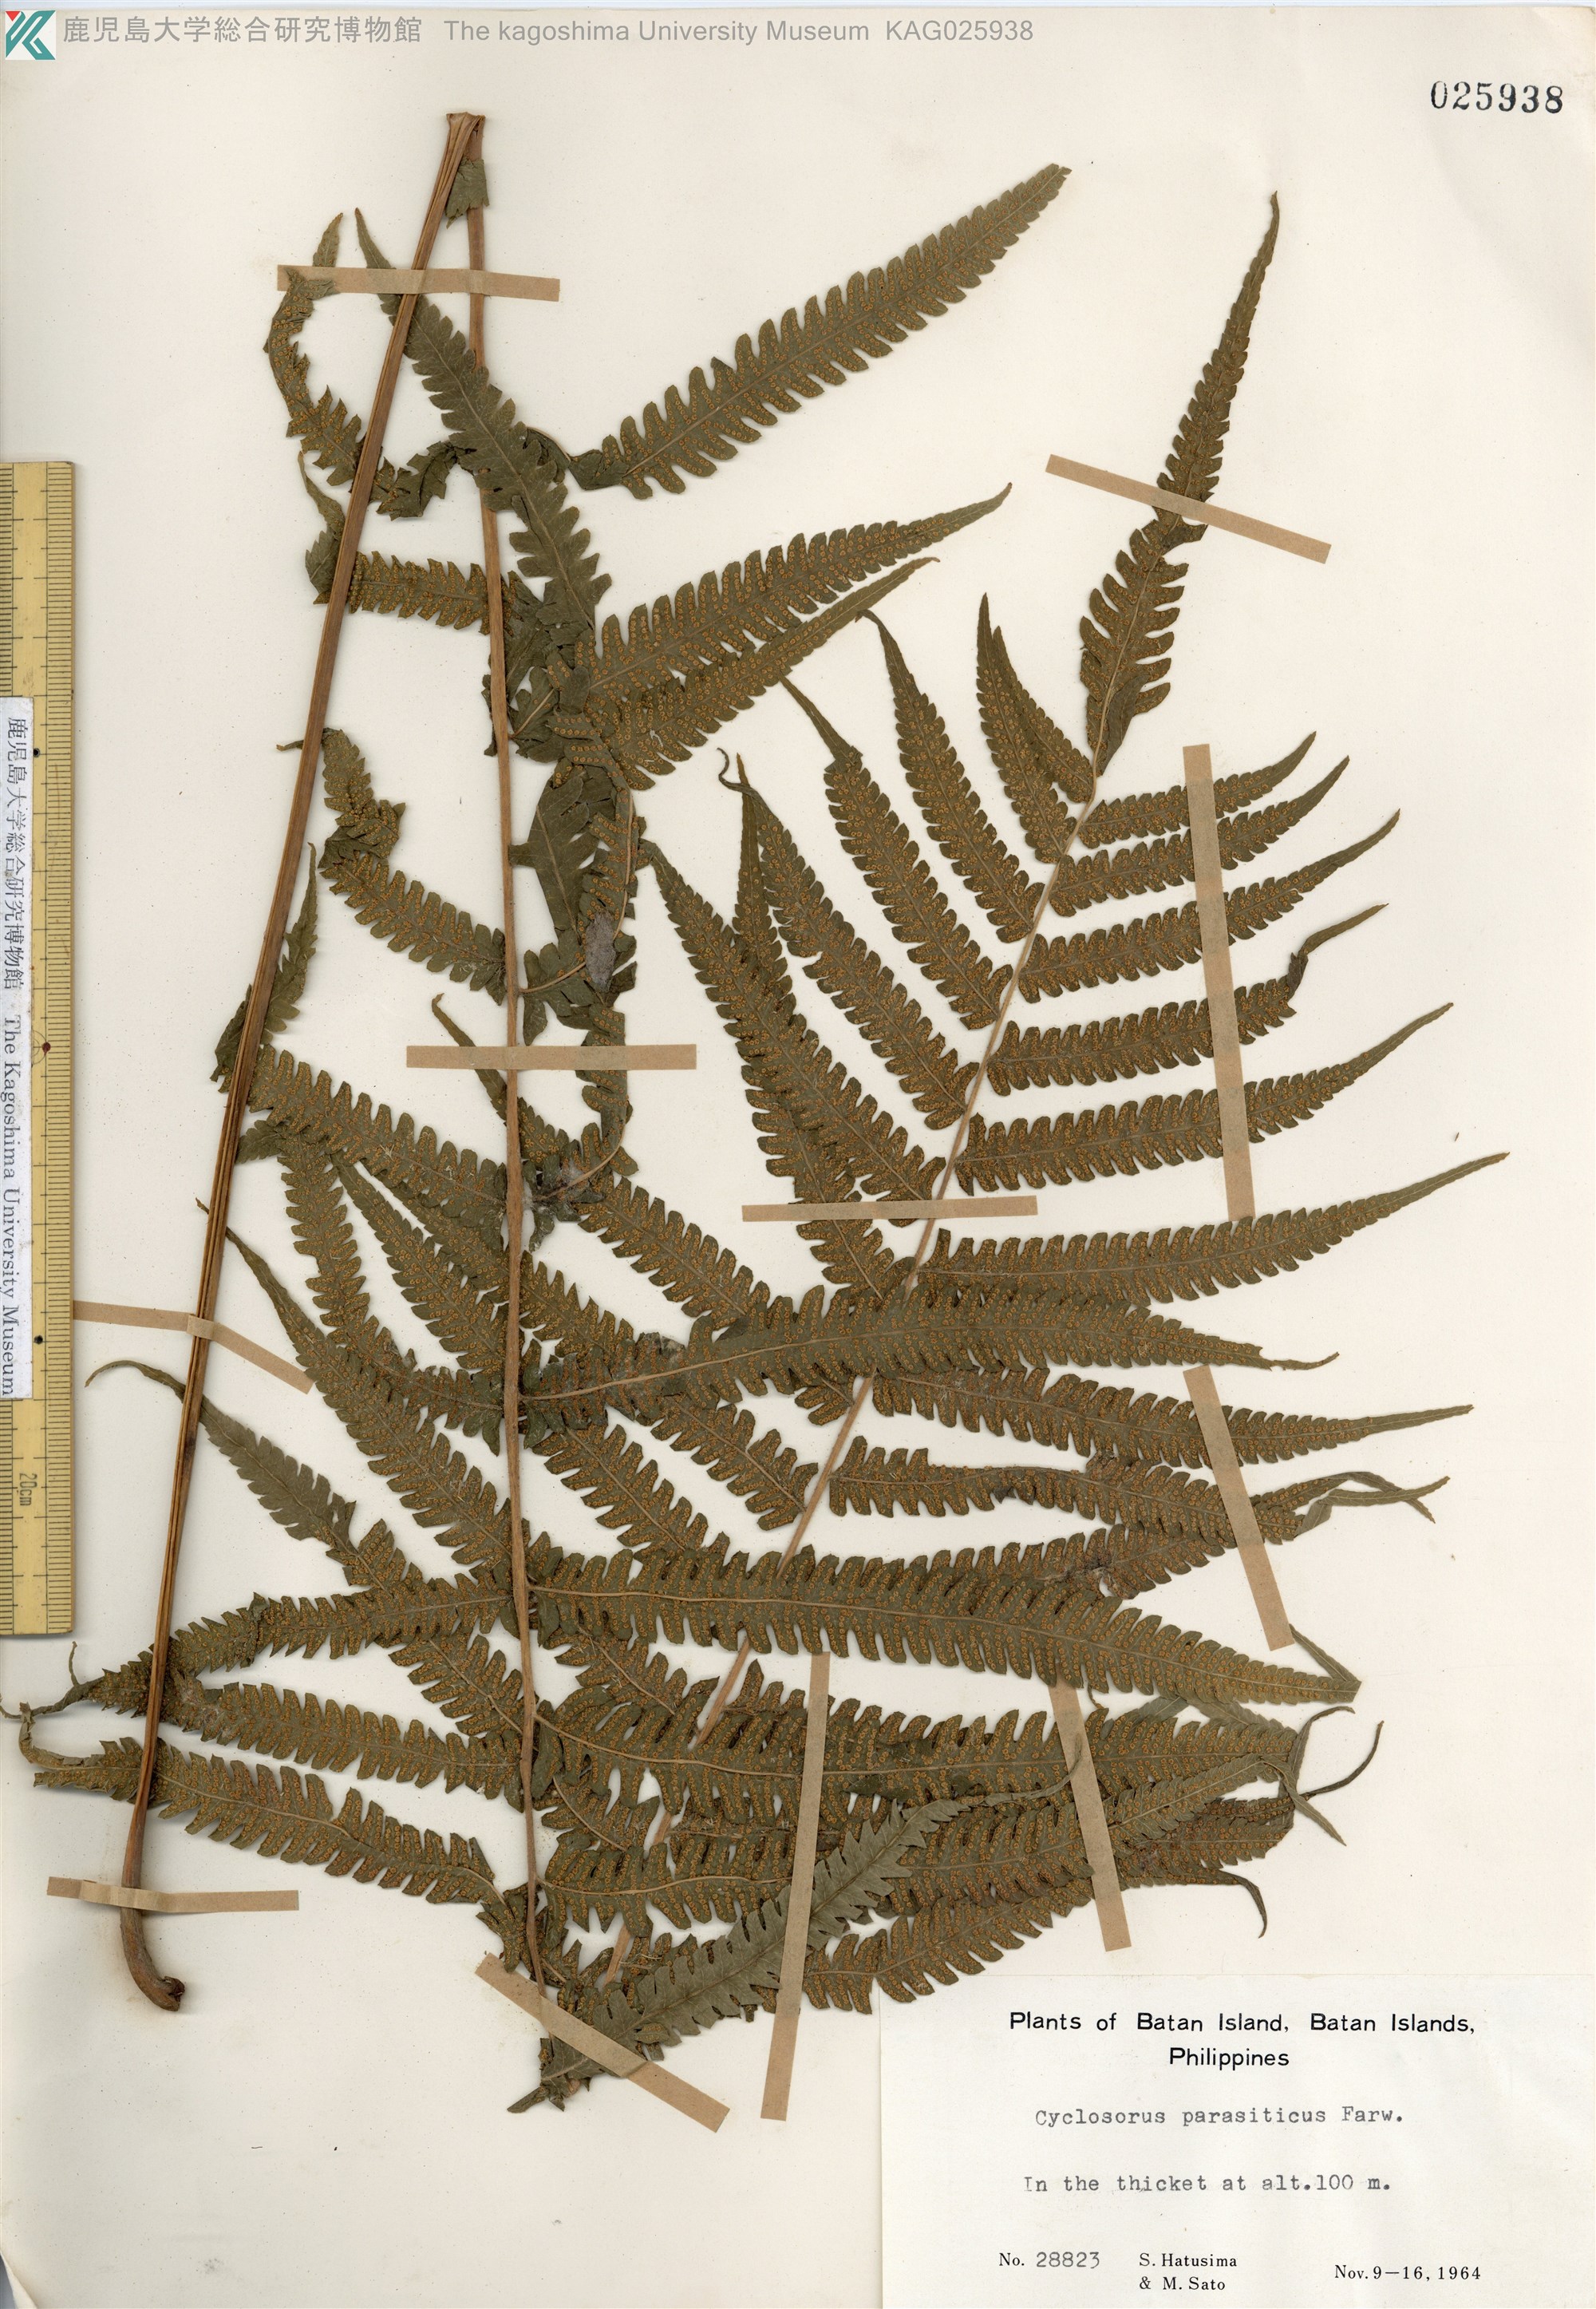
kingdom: Plantae
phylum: Tracheophyta
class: Polypodiopsida
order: Polypodiales
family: Thelypteridaceae
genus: Christella
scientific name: Christella parasitica
